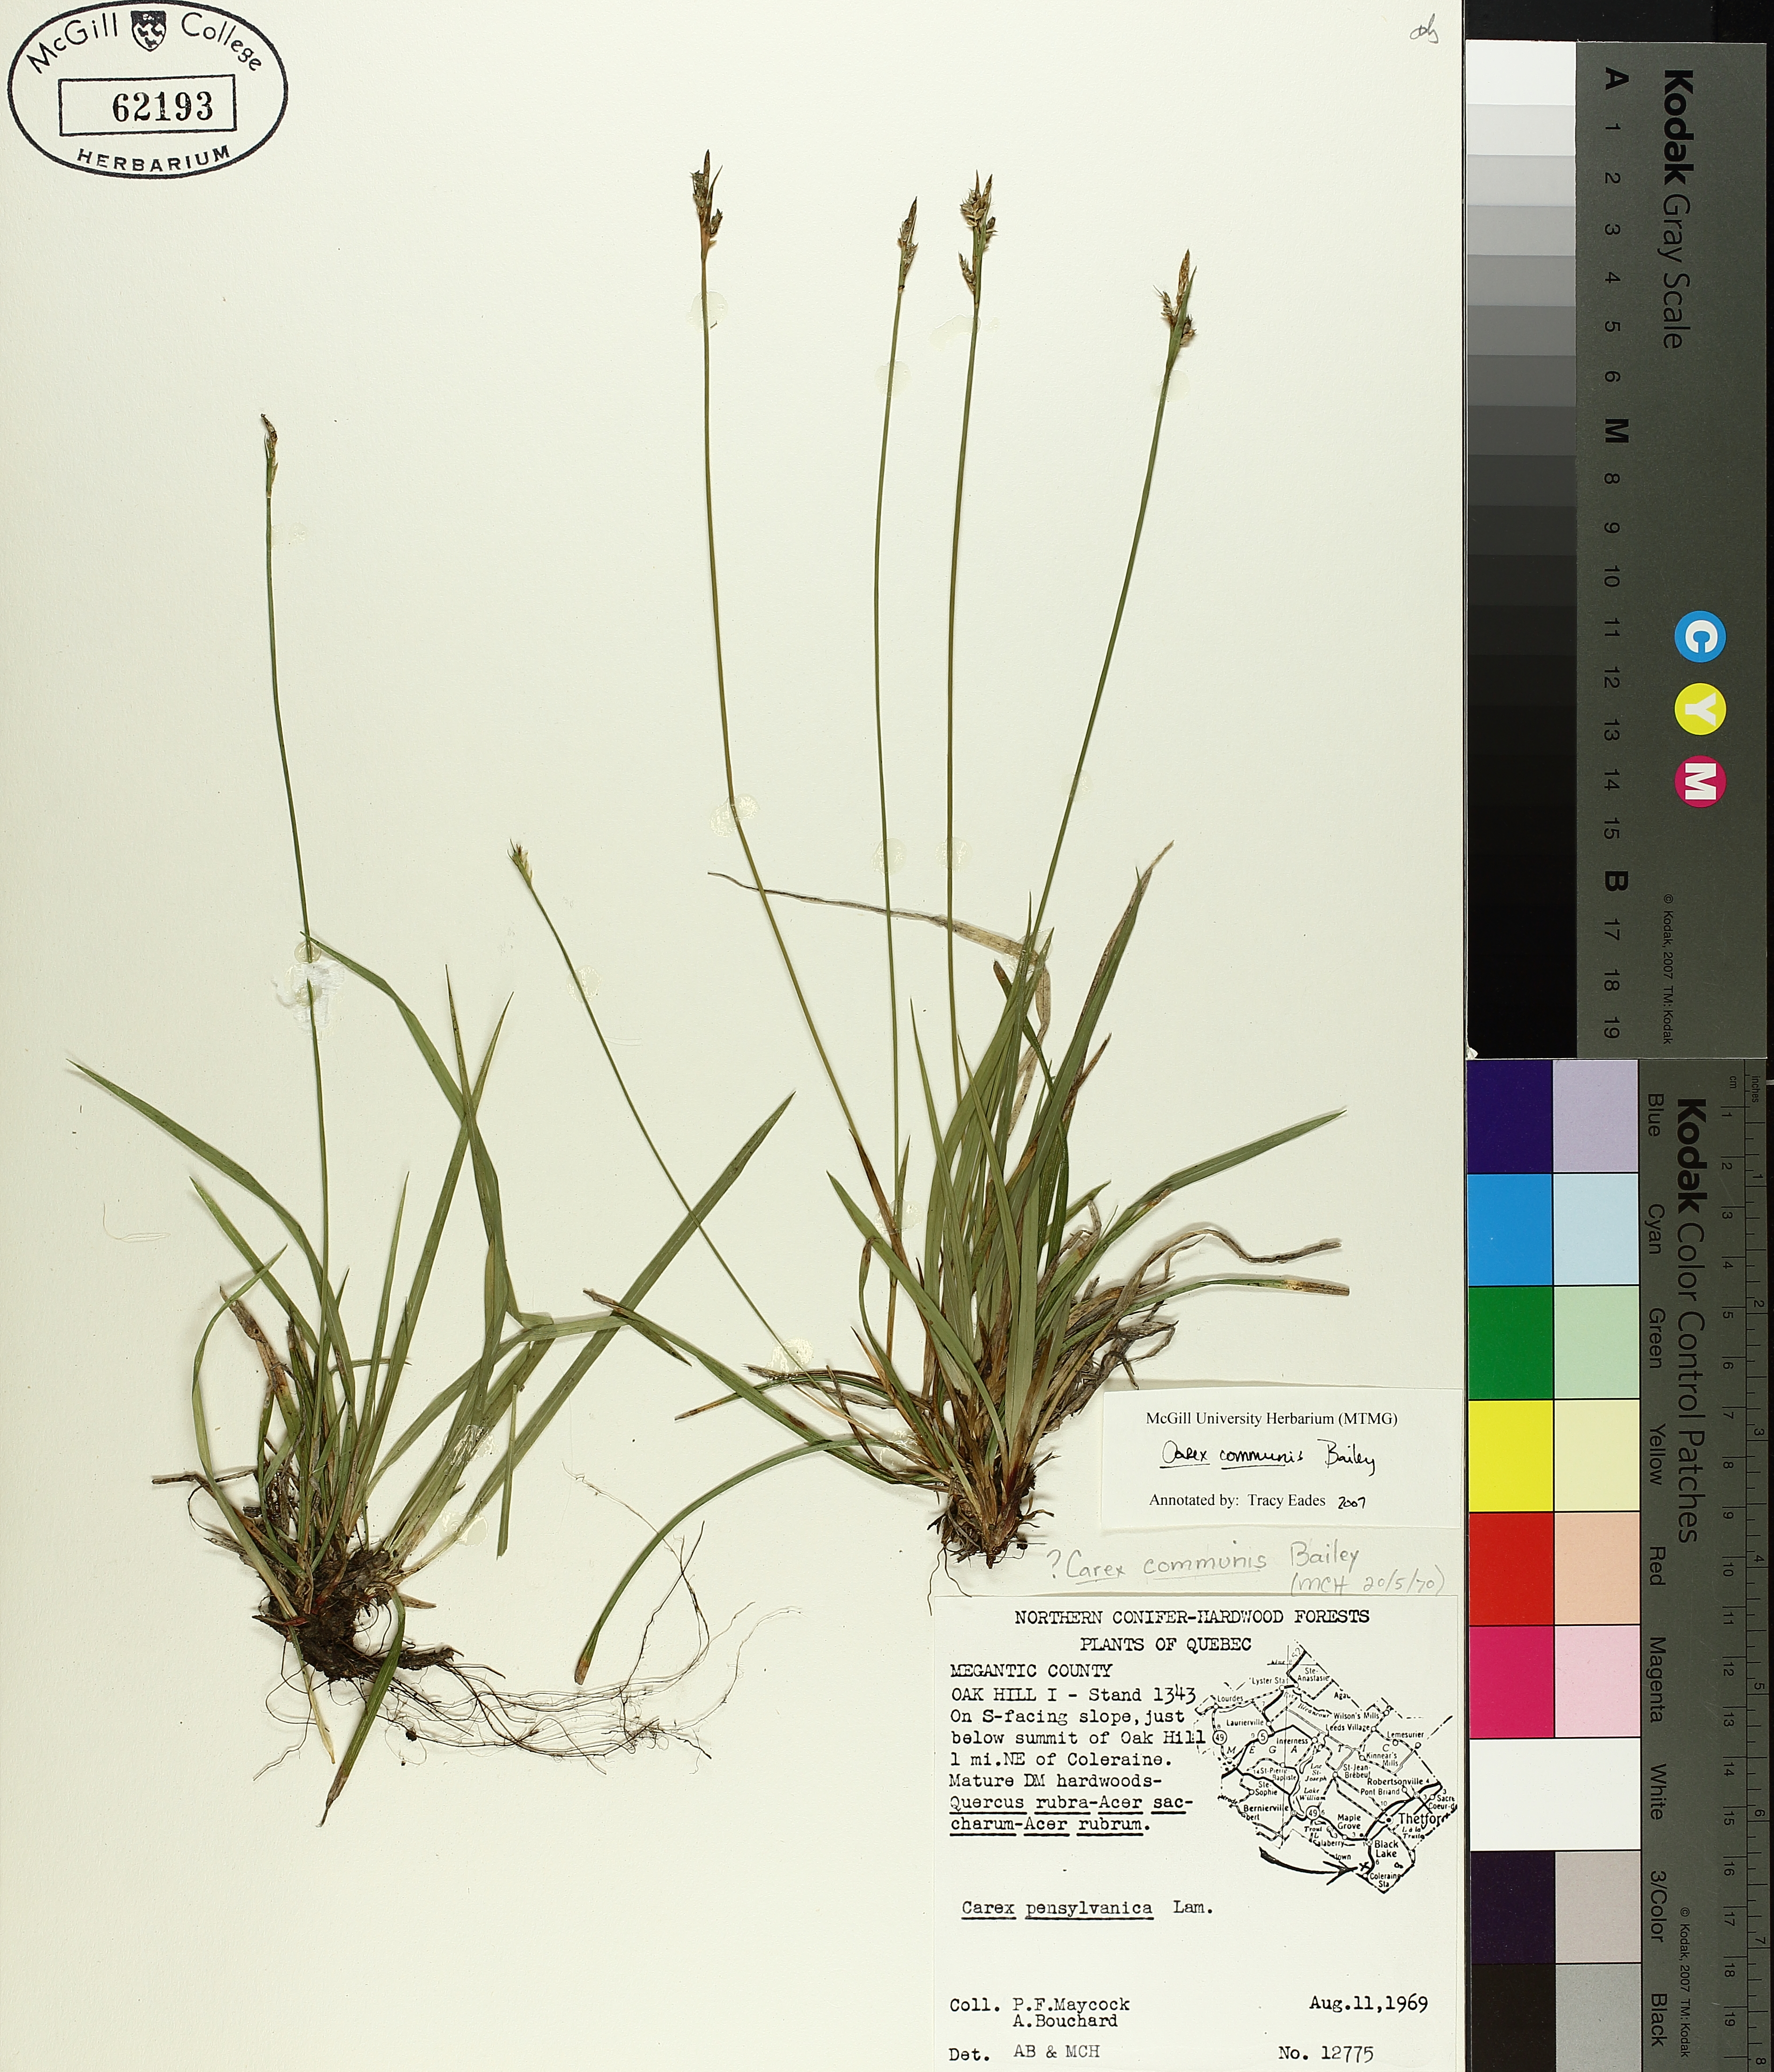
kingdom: Plantae
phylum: Tracheophyta
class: Liliopsida
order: Poales
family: Cyperaceae
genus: Carex
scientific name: Carex communis
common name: Colonial oak sedge
